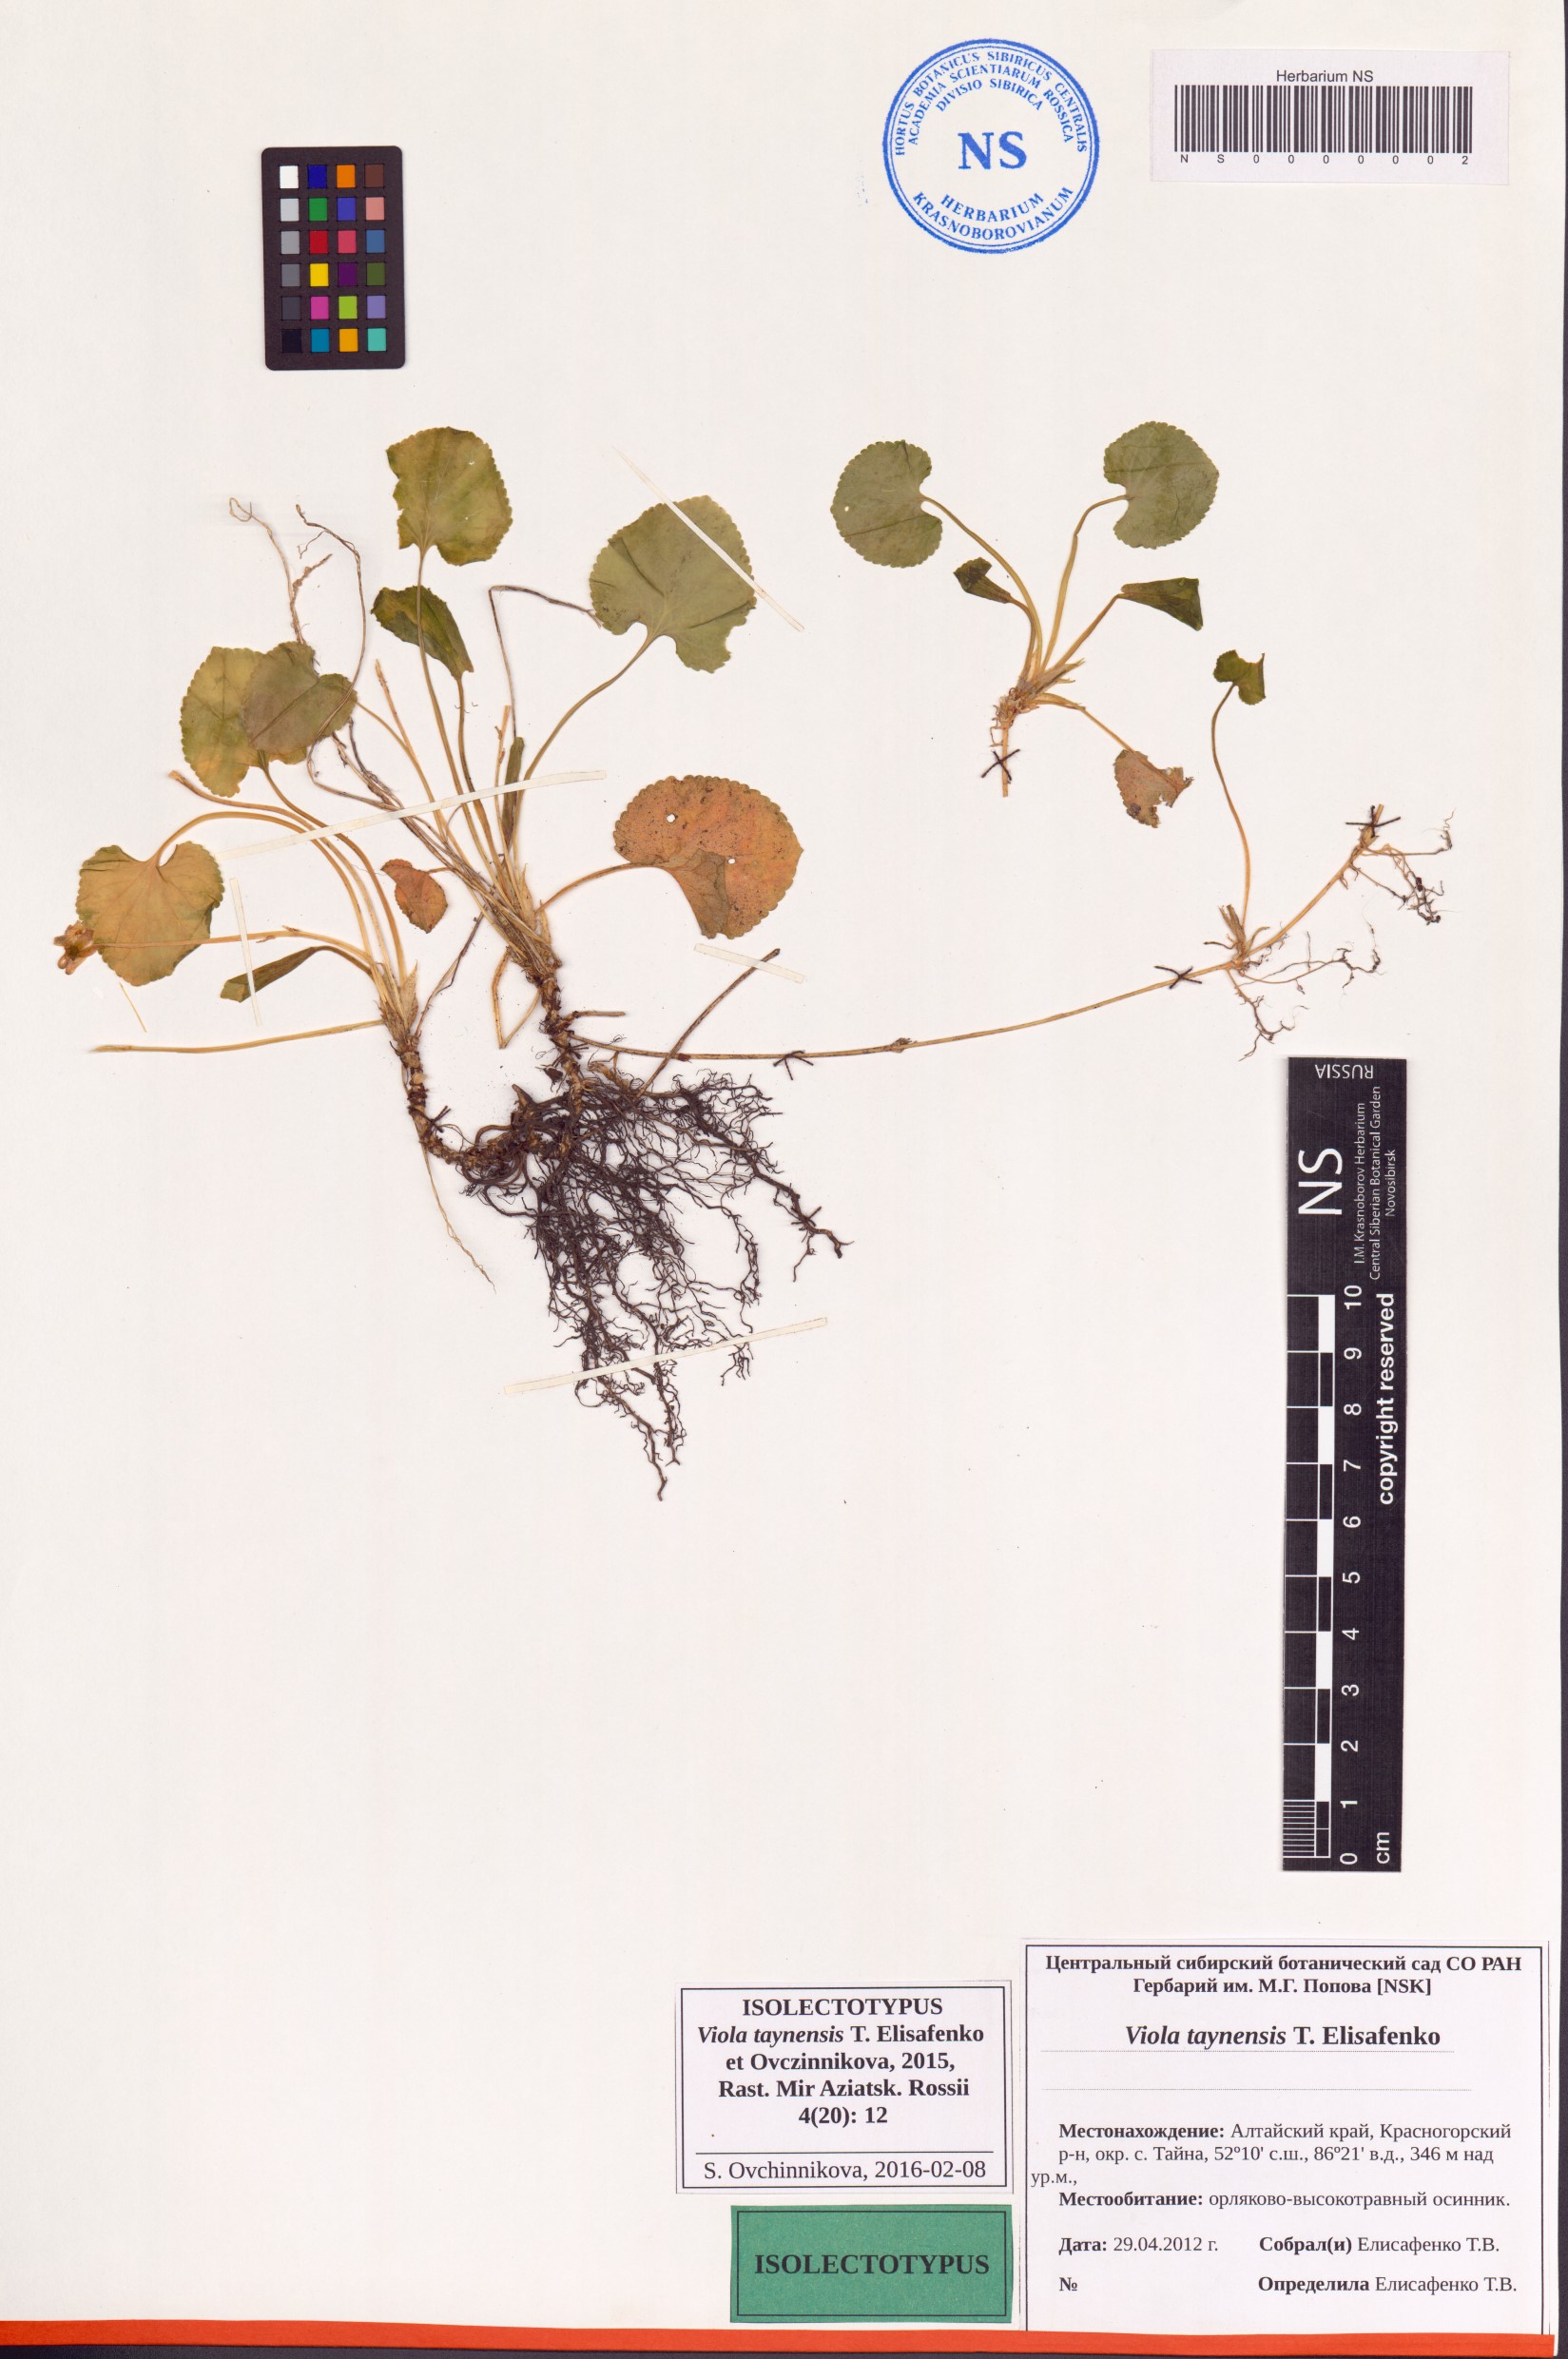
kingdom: Plantae
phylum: Tracheophyta
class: Magnoliopsida
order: Malpighiales
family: Violaceae
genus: Viola
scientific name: Viola odorata
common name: Sweet violet
